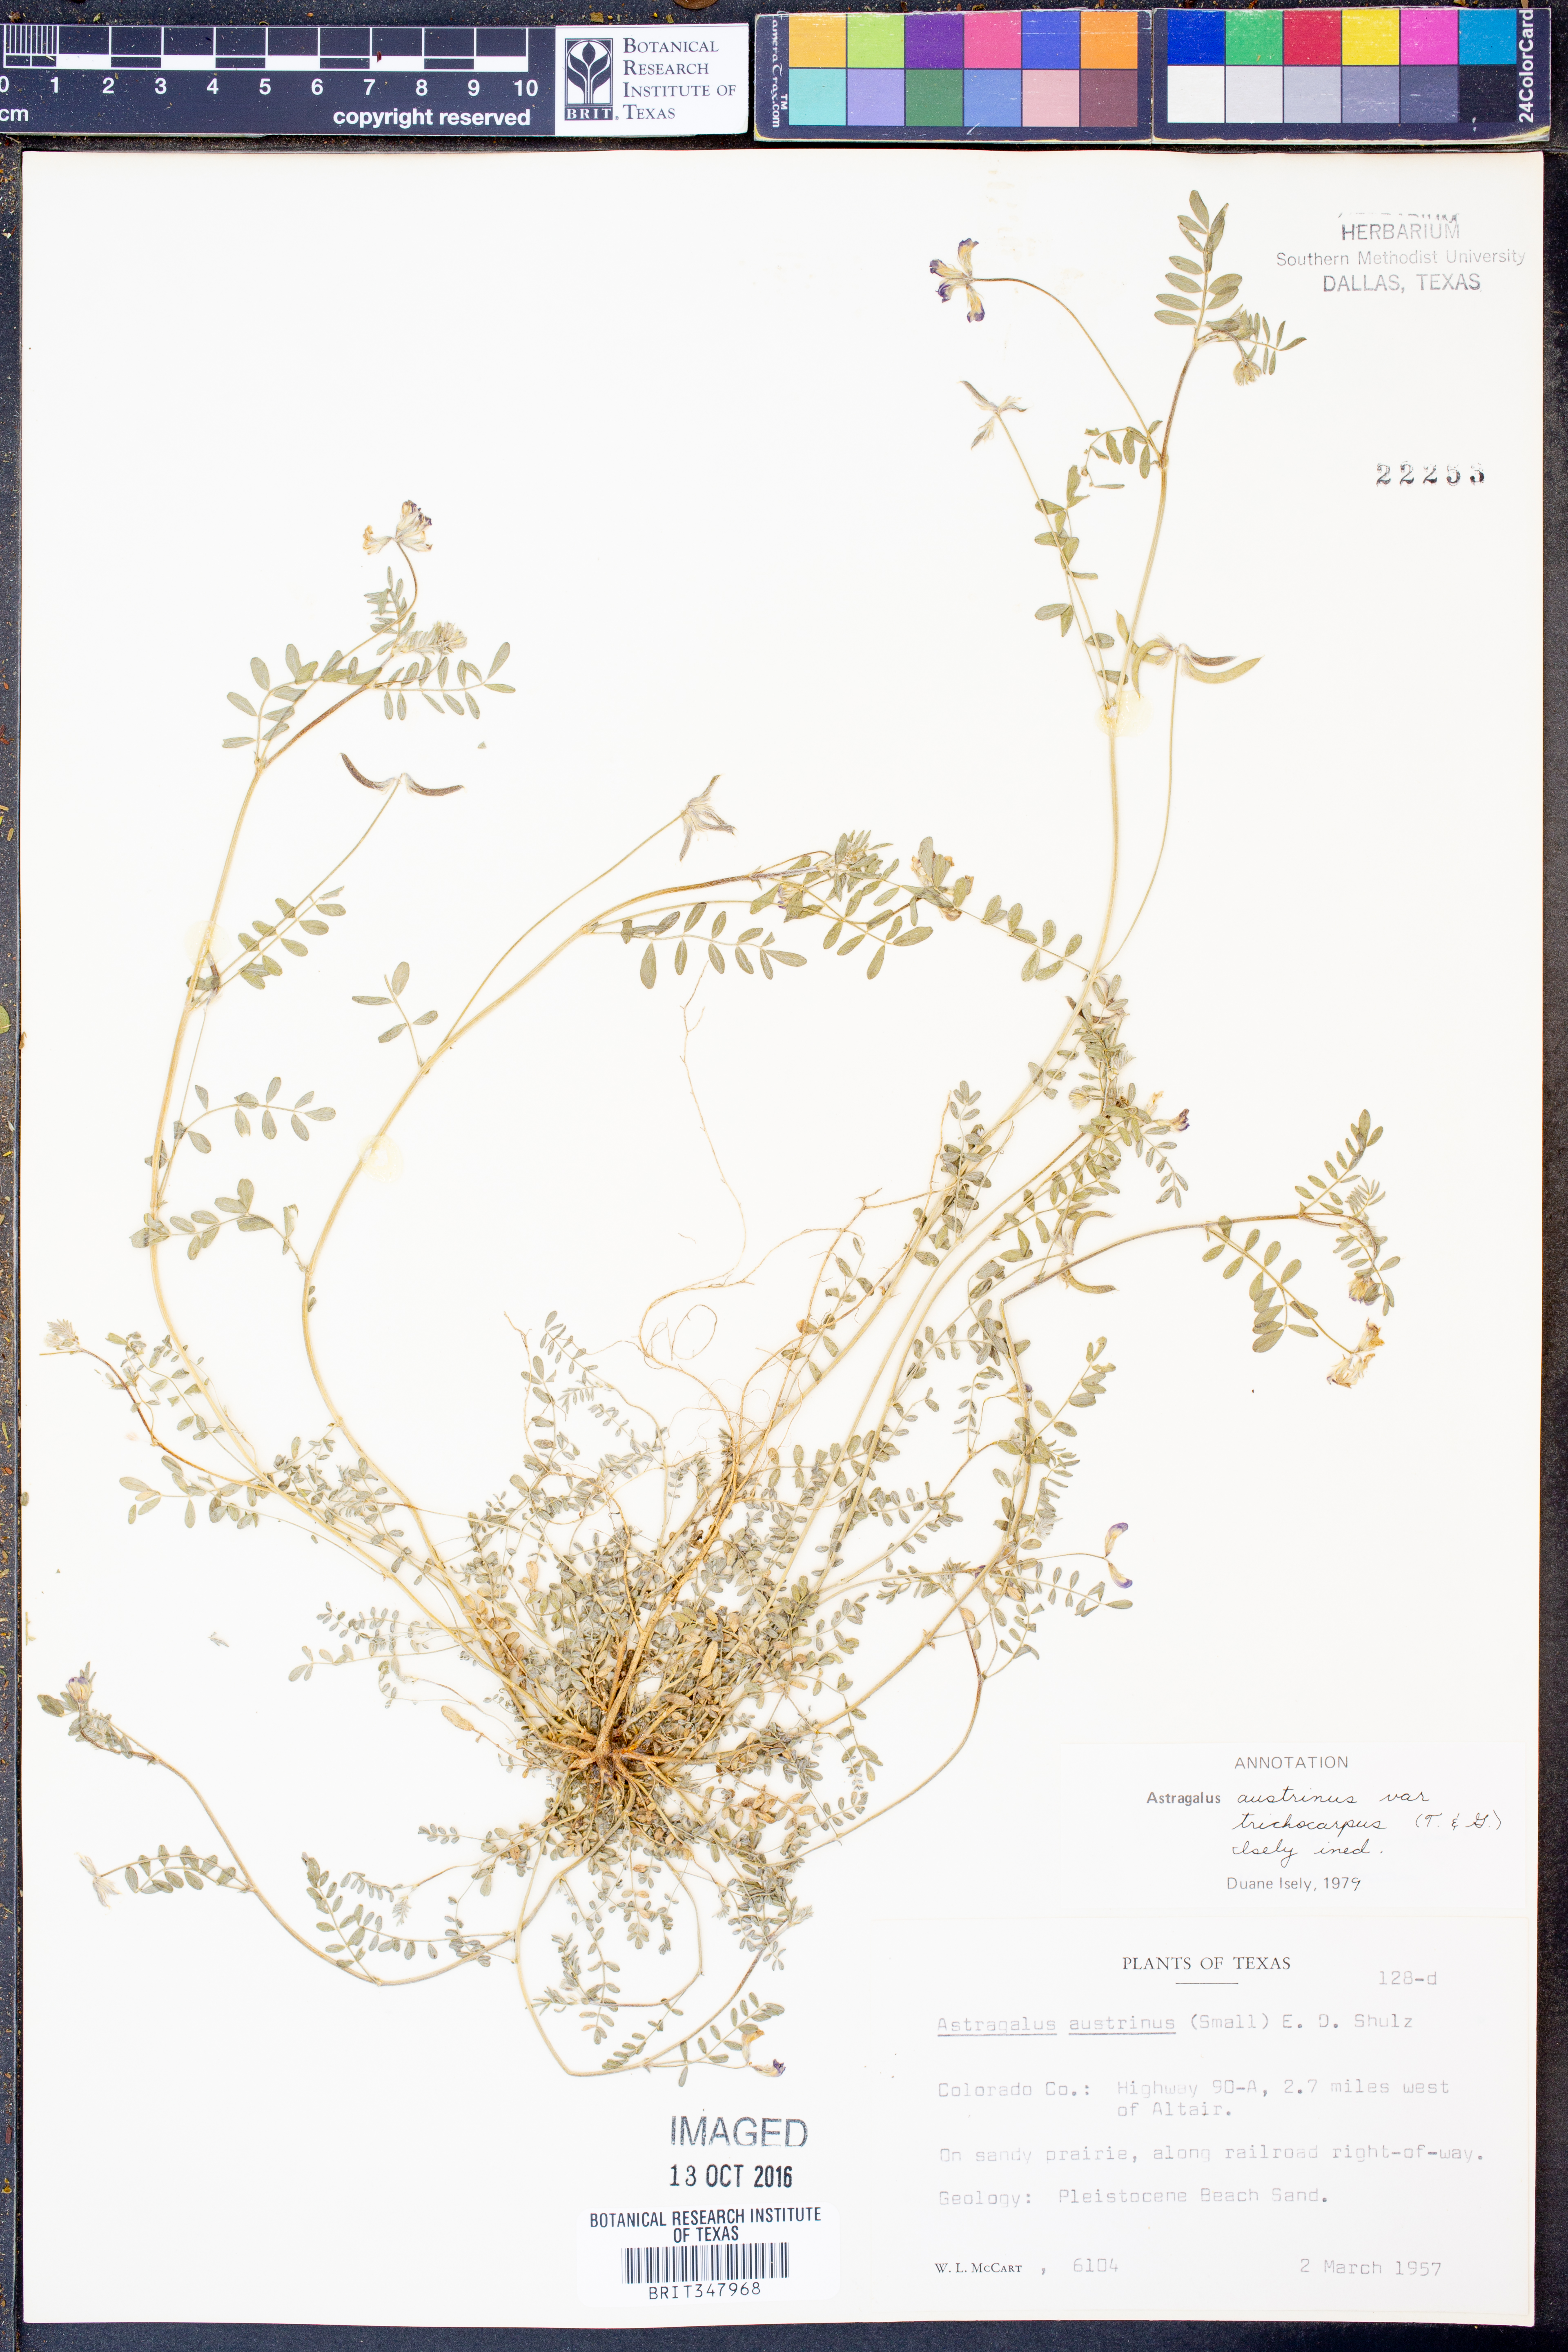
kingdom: Plantae
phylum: Tracheophyta
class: Magnoliopsida
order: Fabales
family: Fabaceae
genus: Astragalus
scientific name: Astragalus nuttallianus
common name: Smallflowered milkvetch
